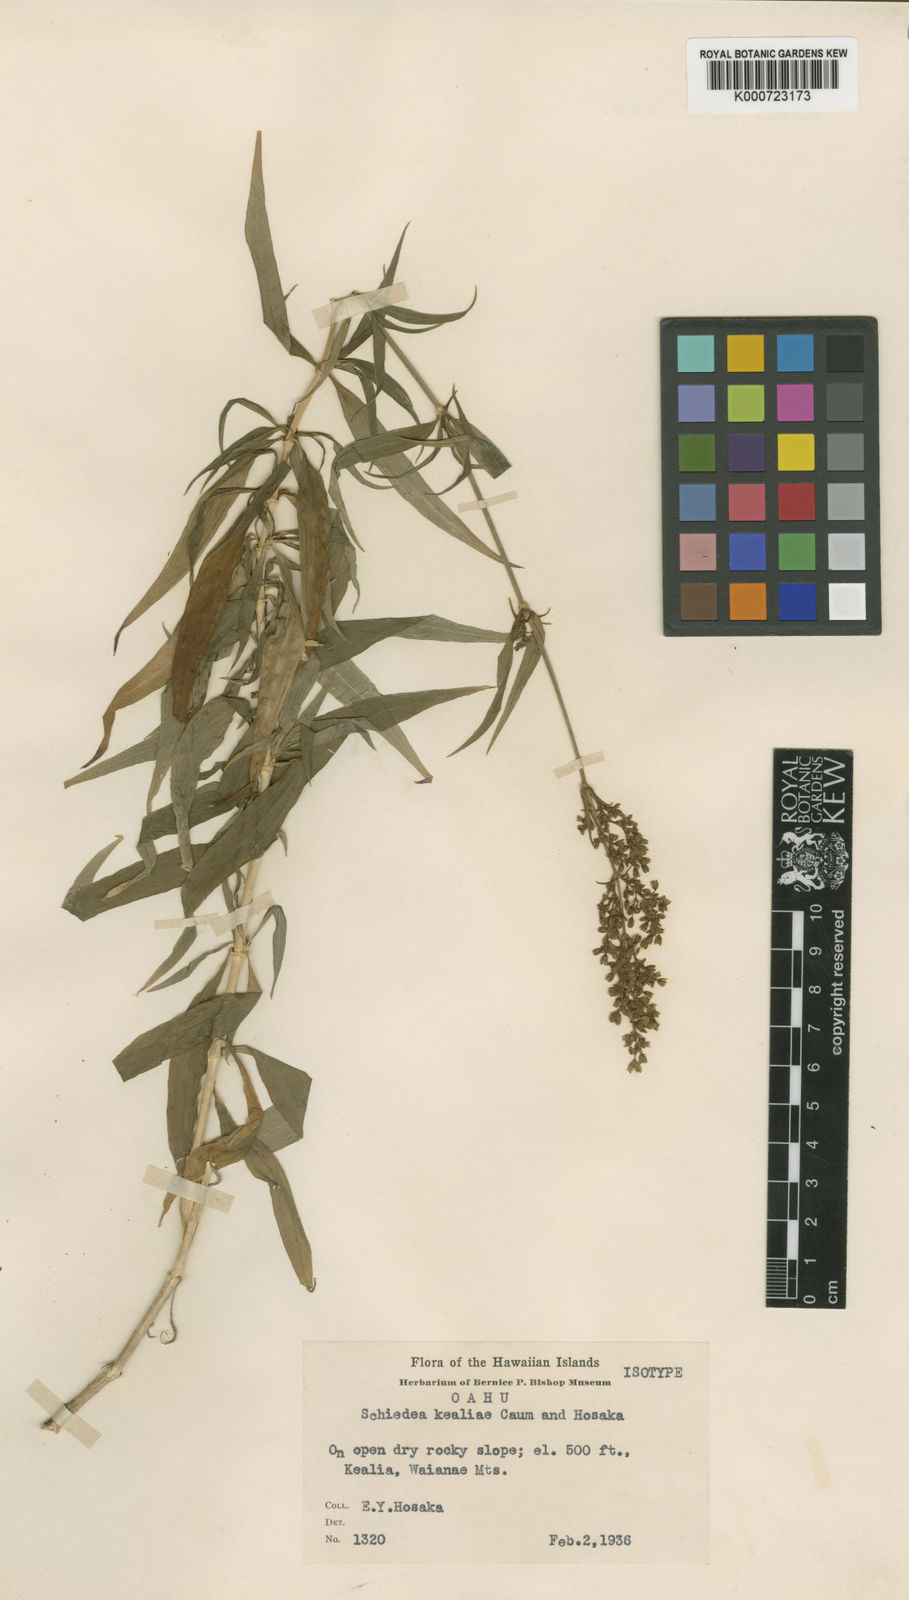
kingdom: Plantae
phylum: Tracheophyta
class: Magnoliopsida
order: Caryophyllales
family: Caryophyllaceae
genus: Schiedea
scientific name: Schiedea kealiae
